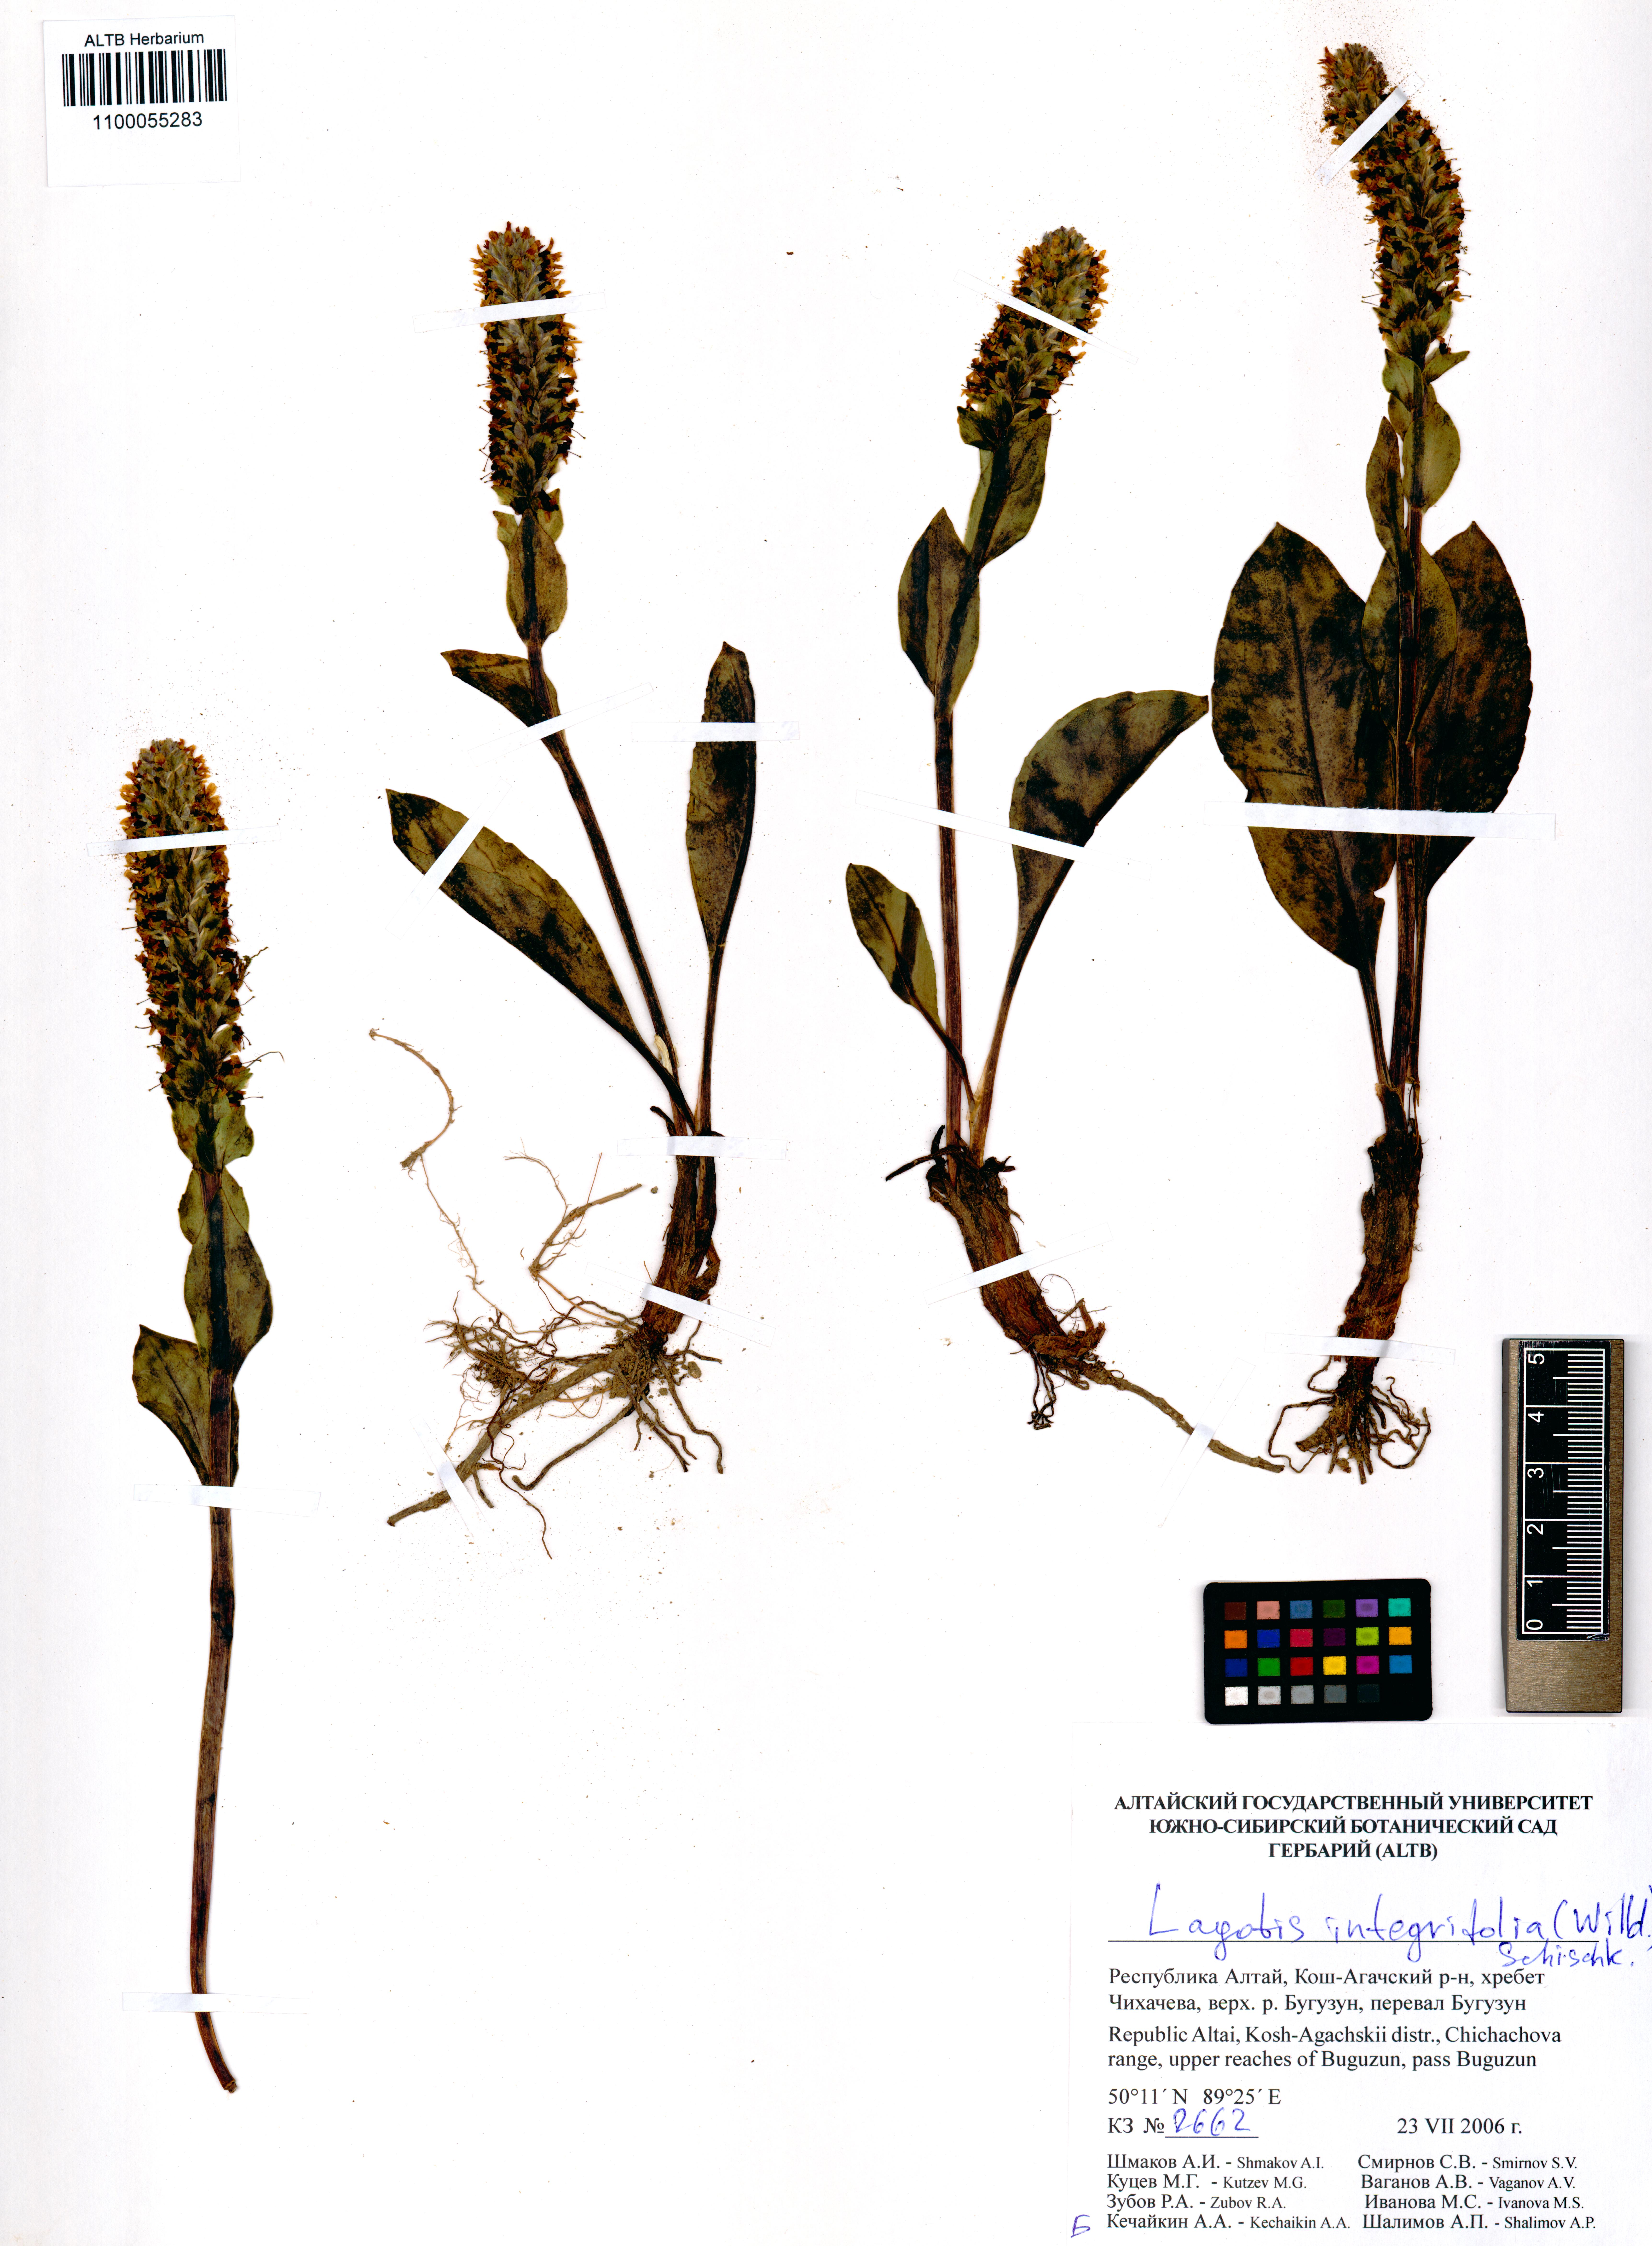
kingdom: Plantae
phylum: Tracheophyta
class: Magnoliopsida
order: Lamiales
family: Plantaginaceae
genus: Lagotis
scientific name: Lagotis integrifolia
